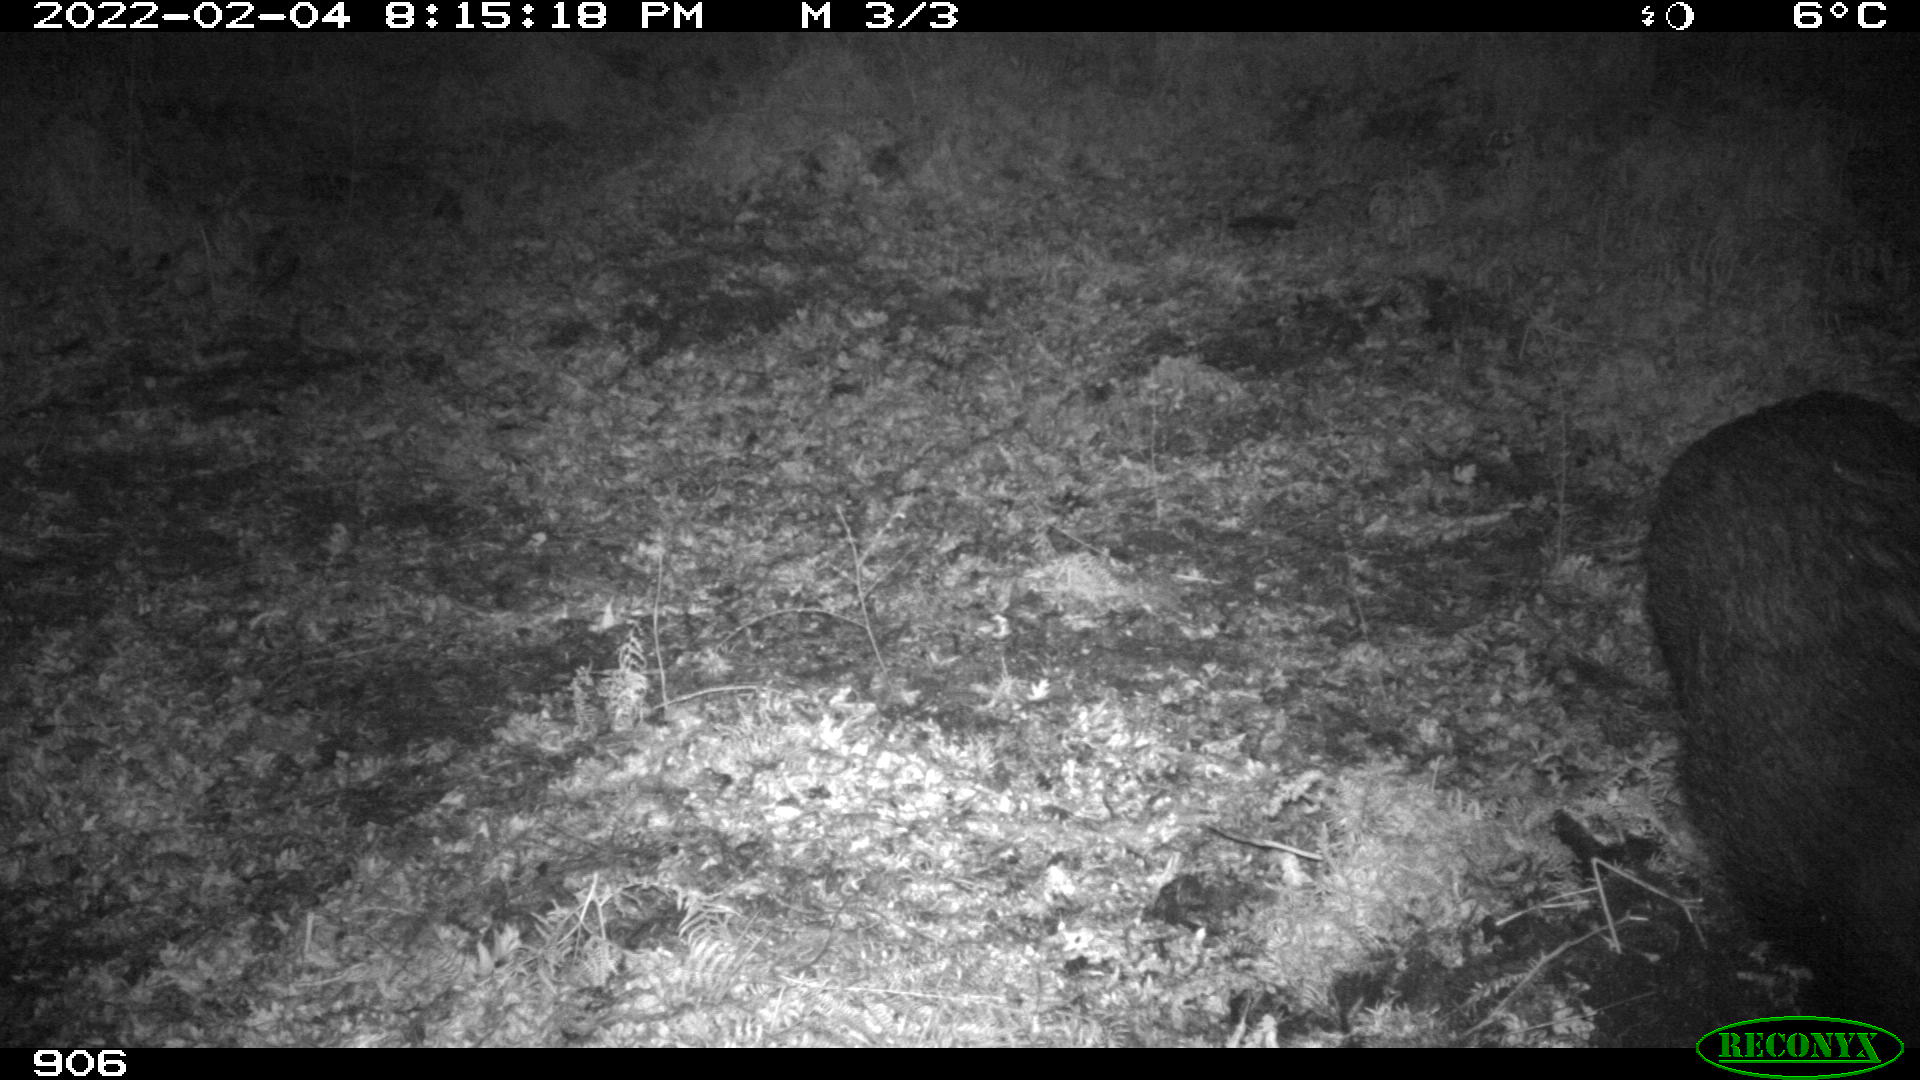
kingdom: Animalia
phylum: Chordata
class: Mammalia
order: Artiodactyla
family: Suidae
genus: Sus
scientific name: Sus scrofa
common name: Wild boar
